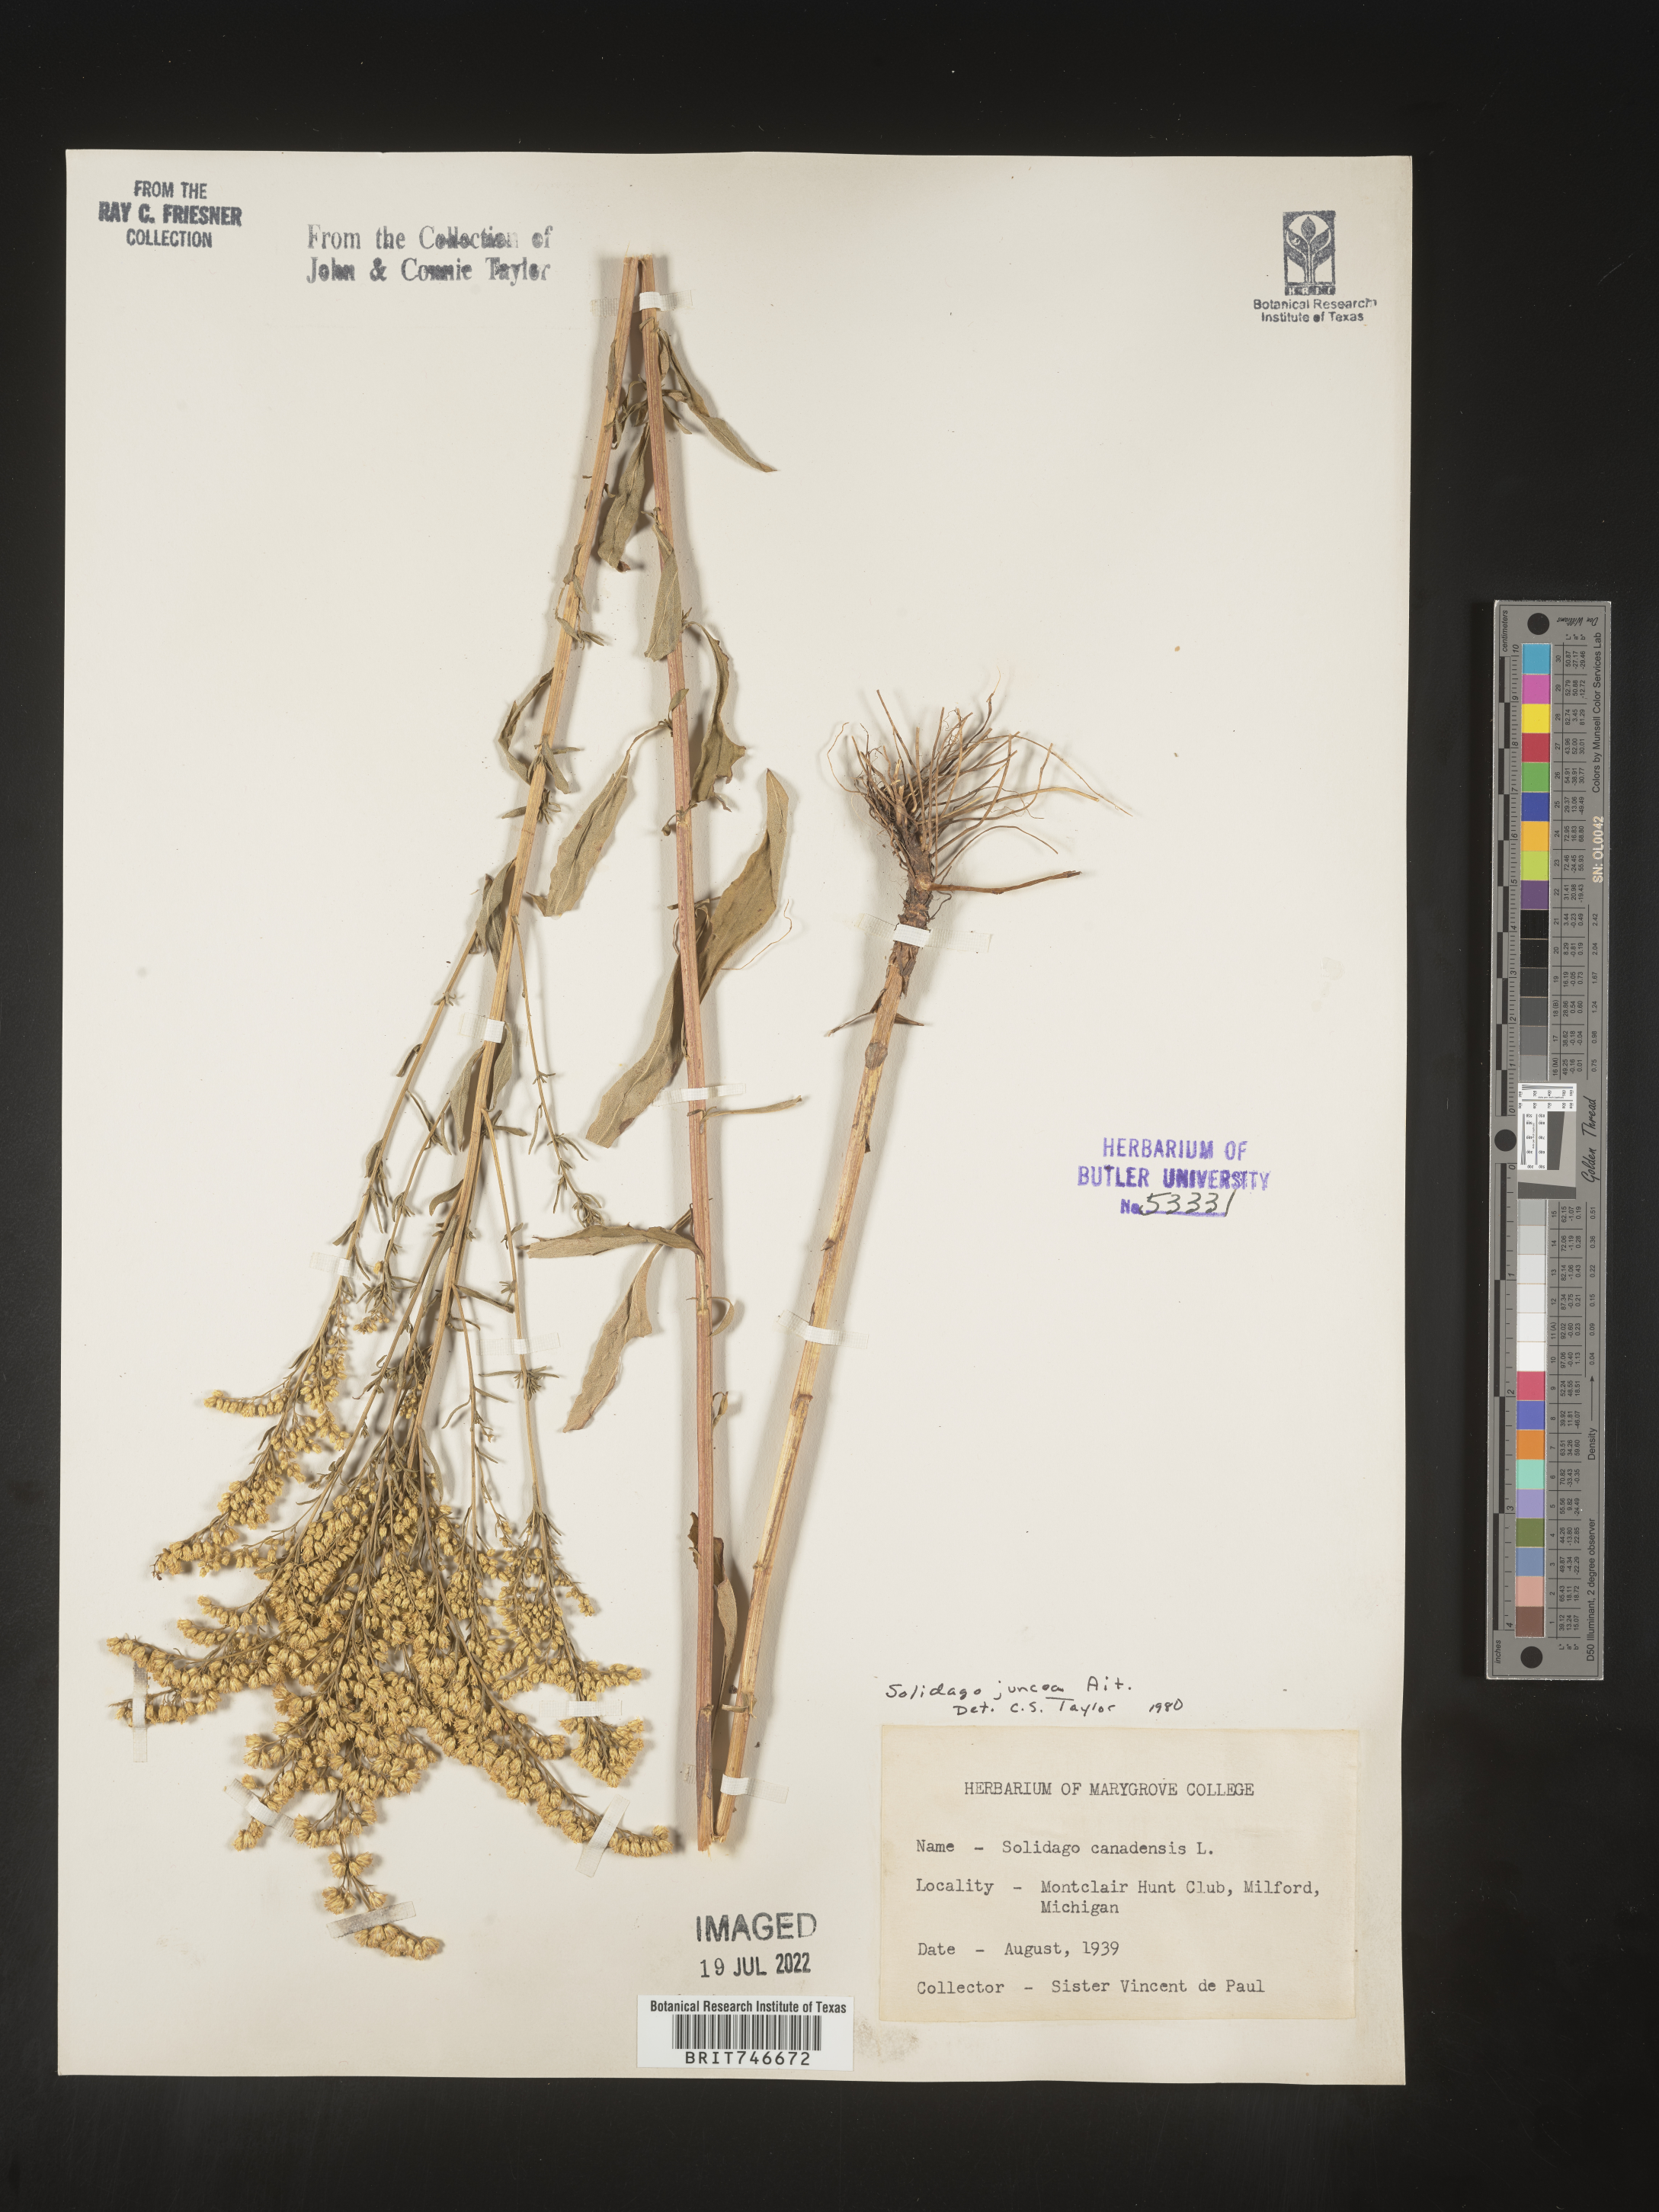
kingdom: Plantae
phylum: Tracheophyta
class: Magnoliopsida
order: Asterales
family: Asteraceae
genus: Solidago
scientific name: Solidago juncea
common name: Early goldenrod
